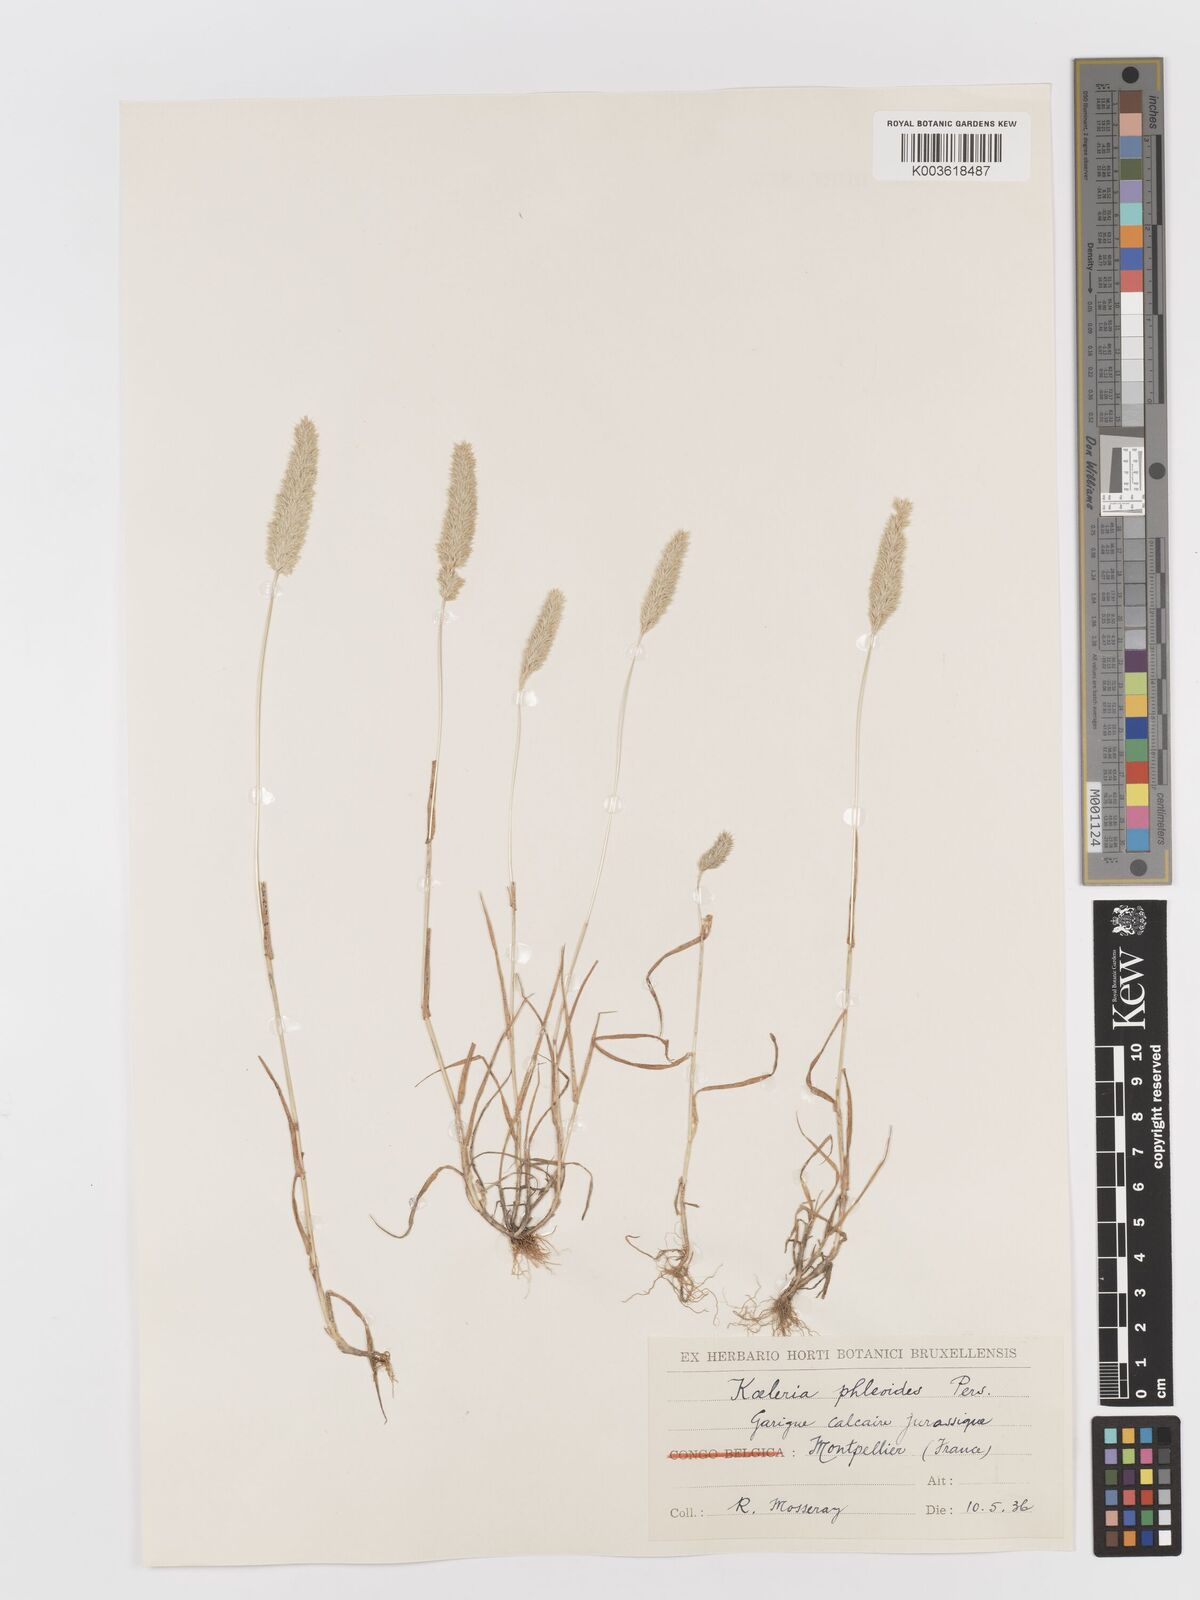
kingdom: Plantae
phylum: Tracheophyta
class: Liliopsida
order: Poales
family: Poaceae
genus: Rostraria
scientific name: Rostraria cristata
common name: Mediterranean hair-grass
